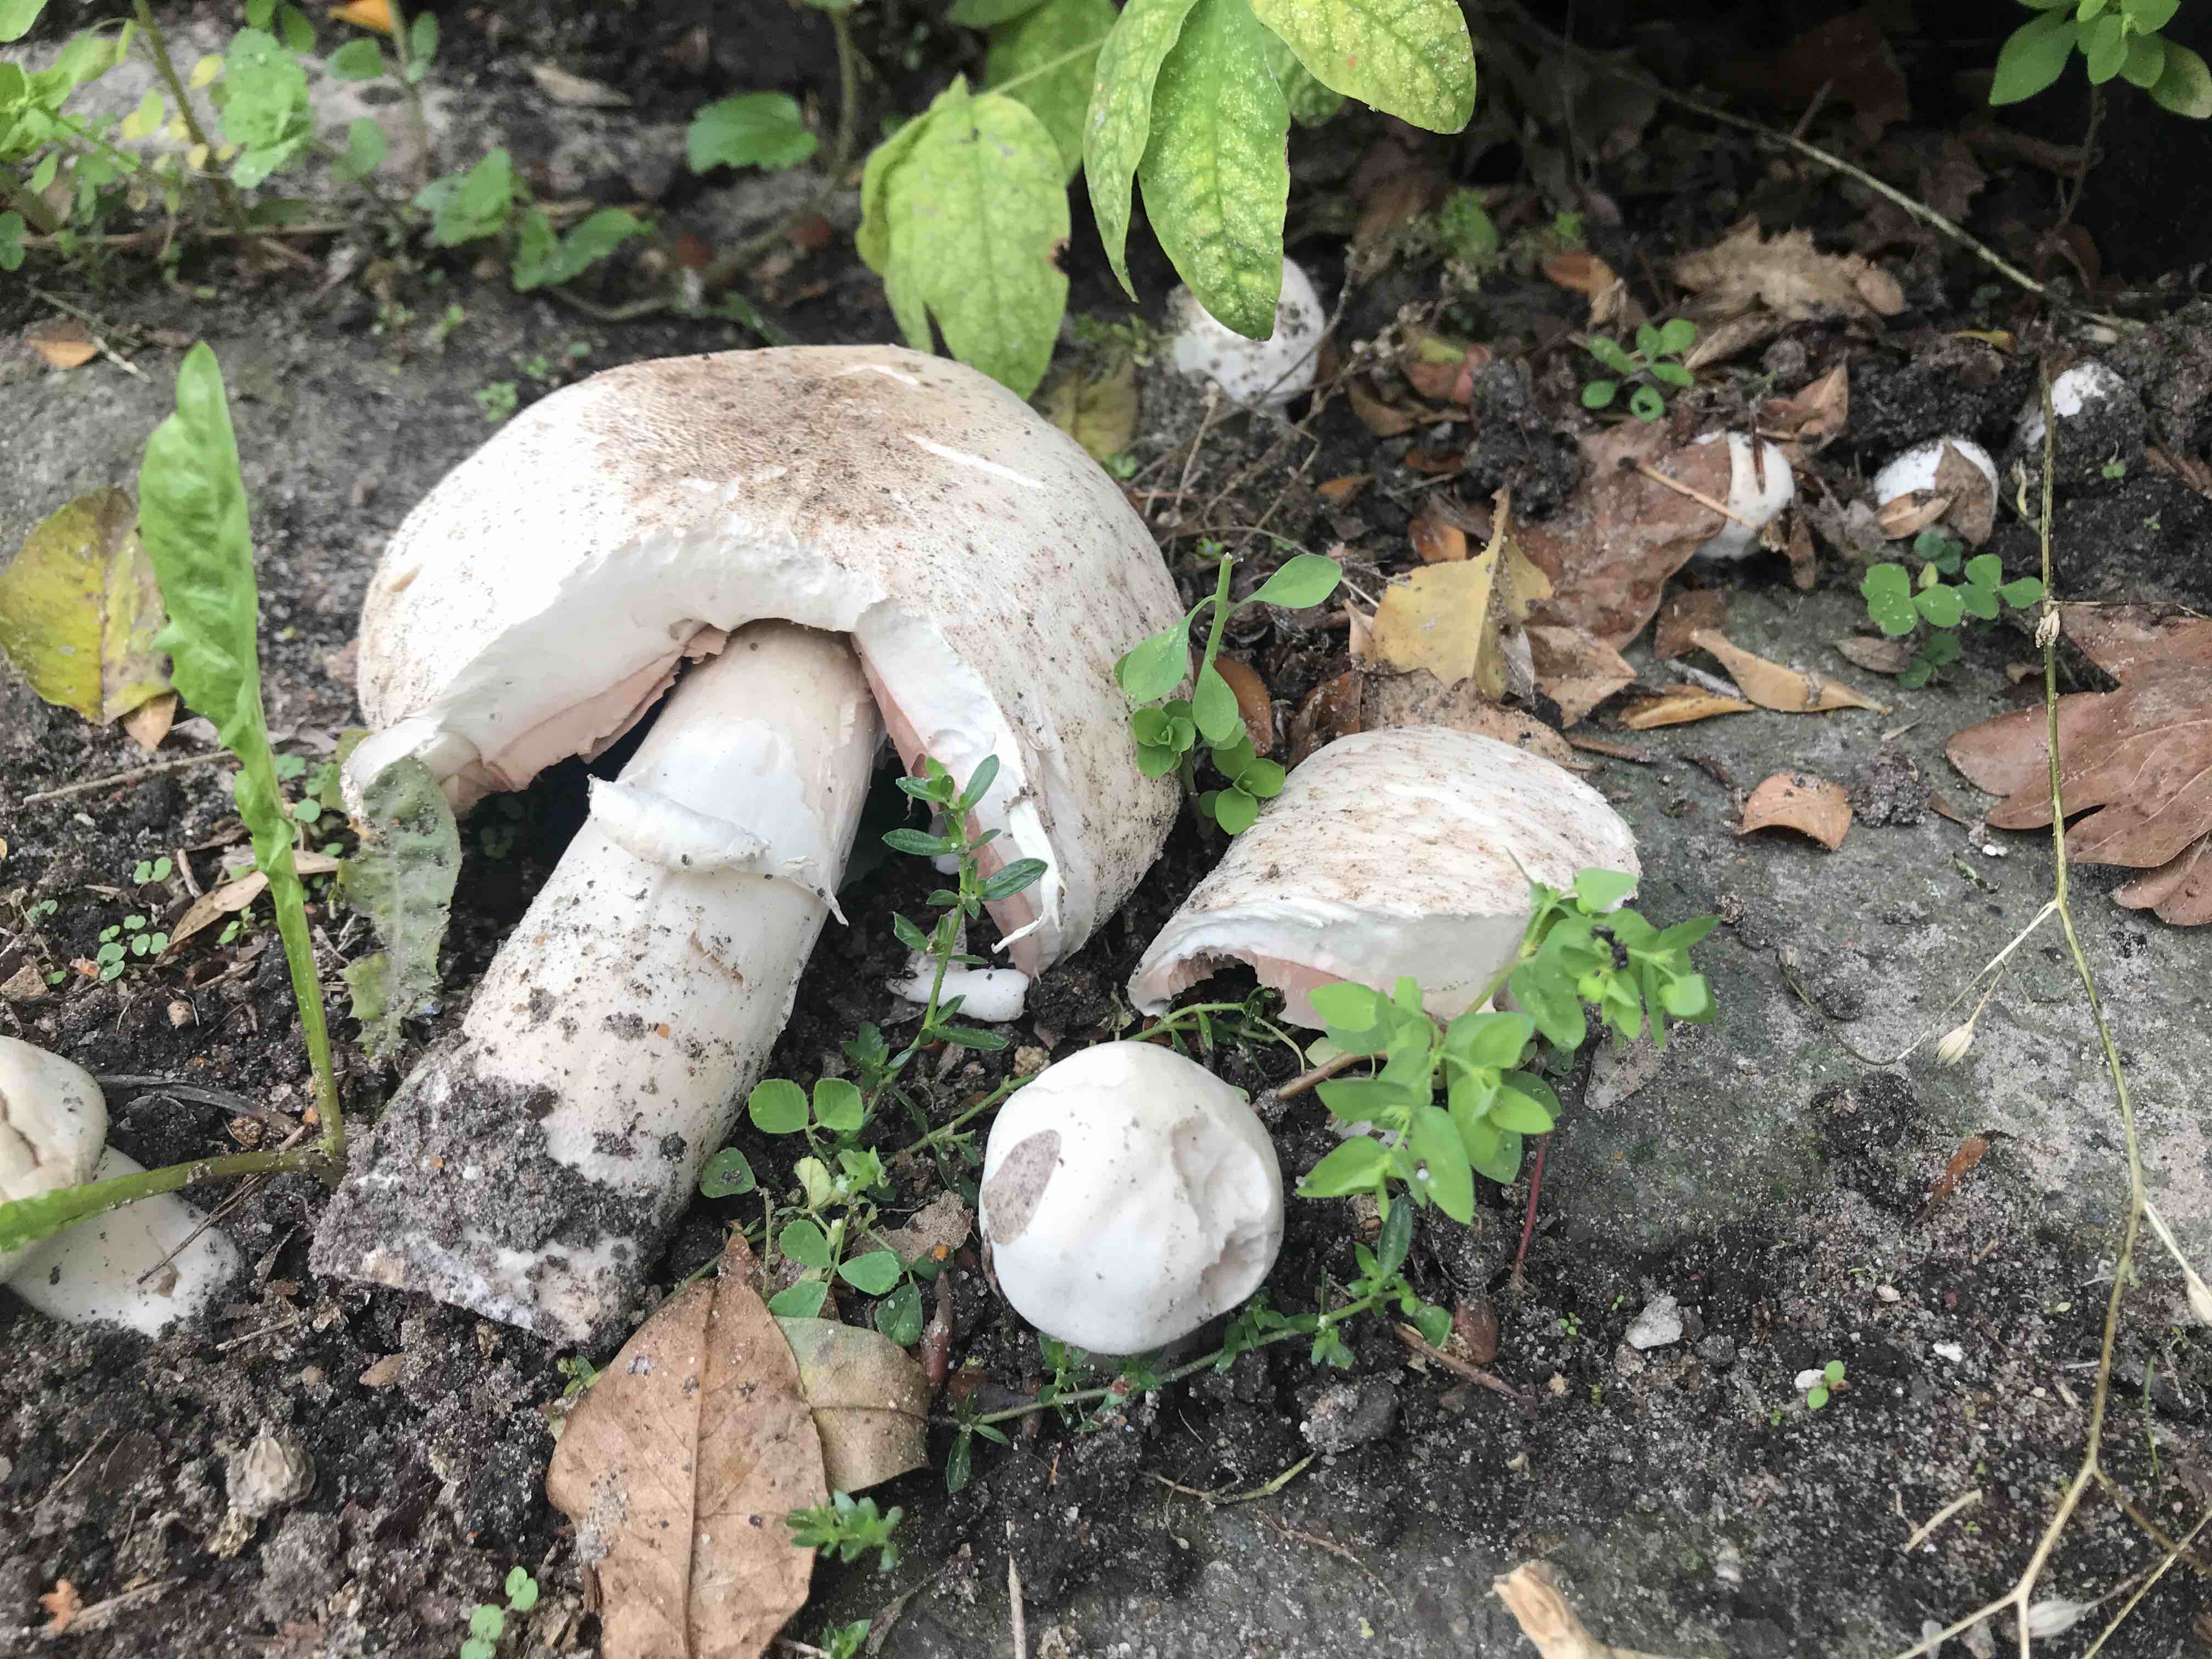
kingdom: Fungi
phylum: Basidiomycota
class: Agaricomycetes
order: Agaricales
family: Agaricaceae
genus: Agaricus
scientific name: Agaricus xanthodermus
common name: karbol-champignon
